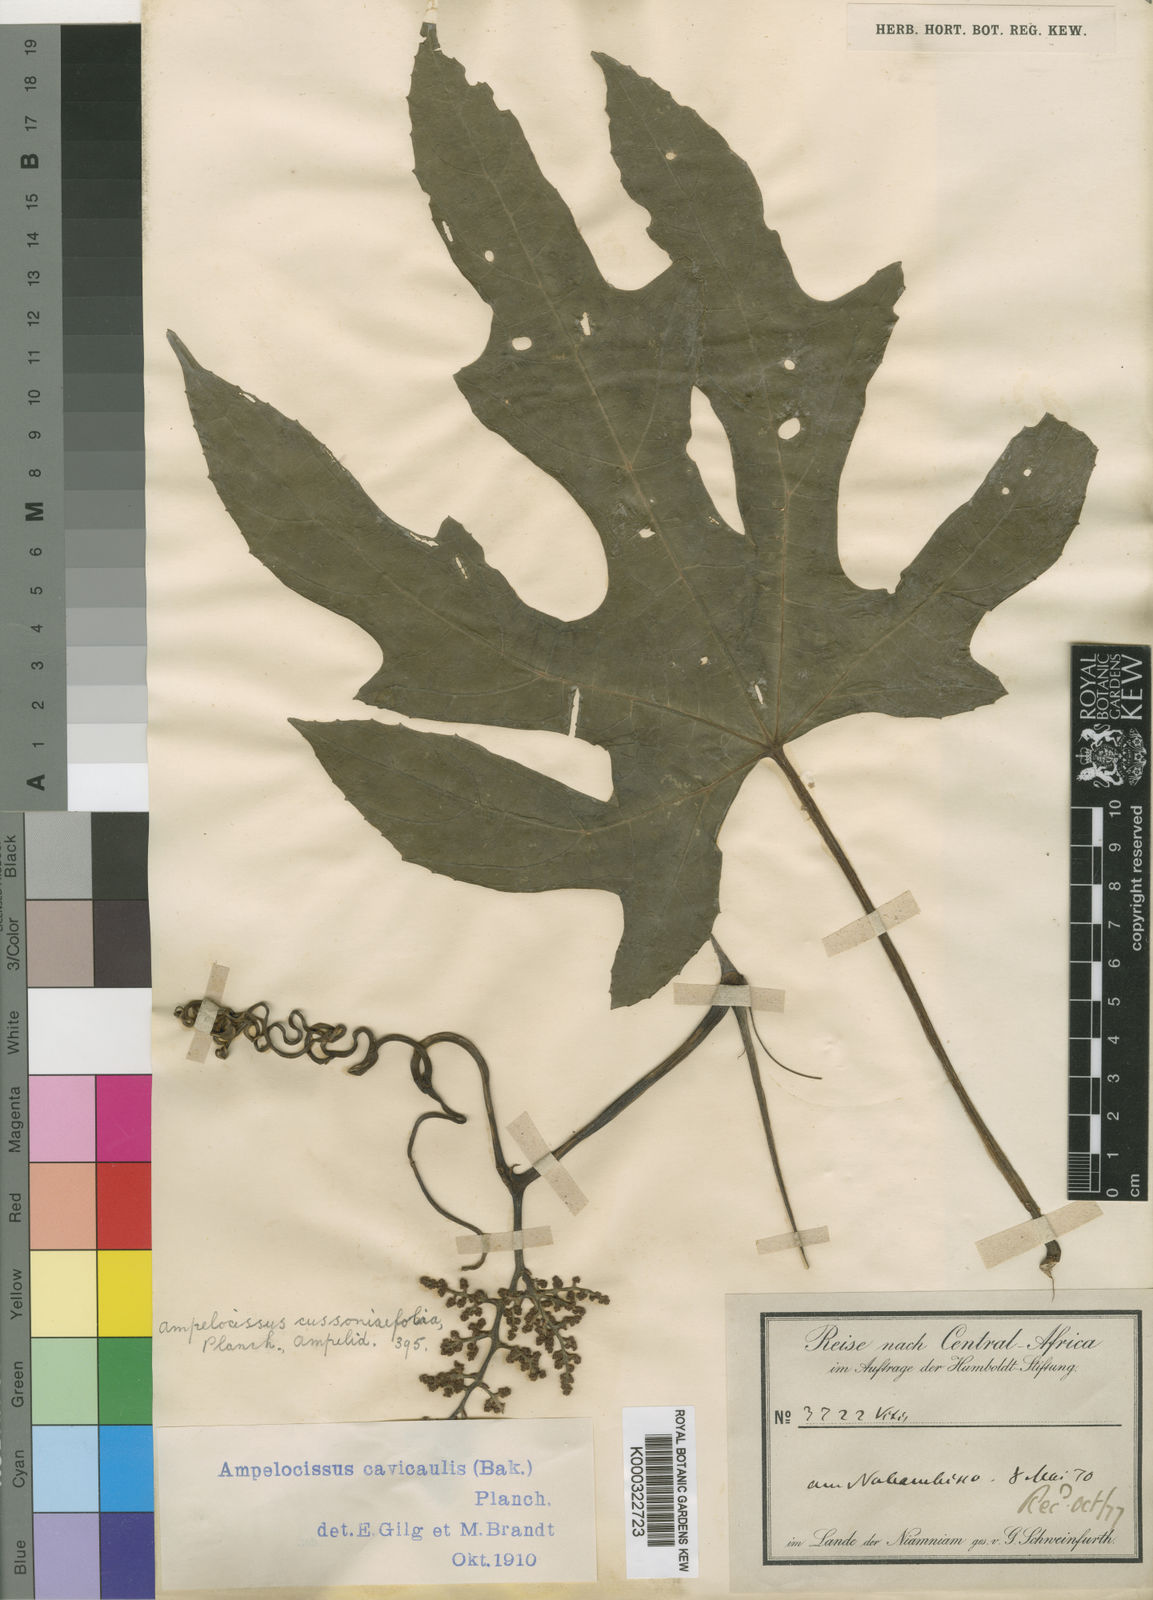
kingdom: Plantae
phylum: Tracheophyta
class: Magnoliopsida
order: Vitales
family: Vitaceae
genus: Ampelocissus
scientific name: Ampelocissus abyssinica
